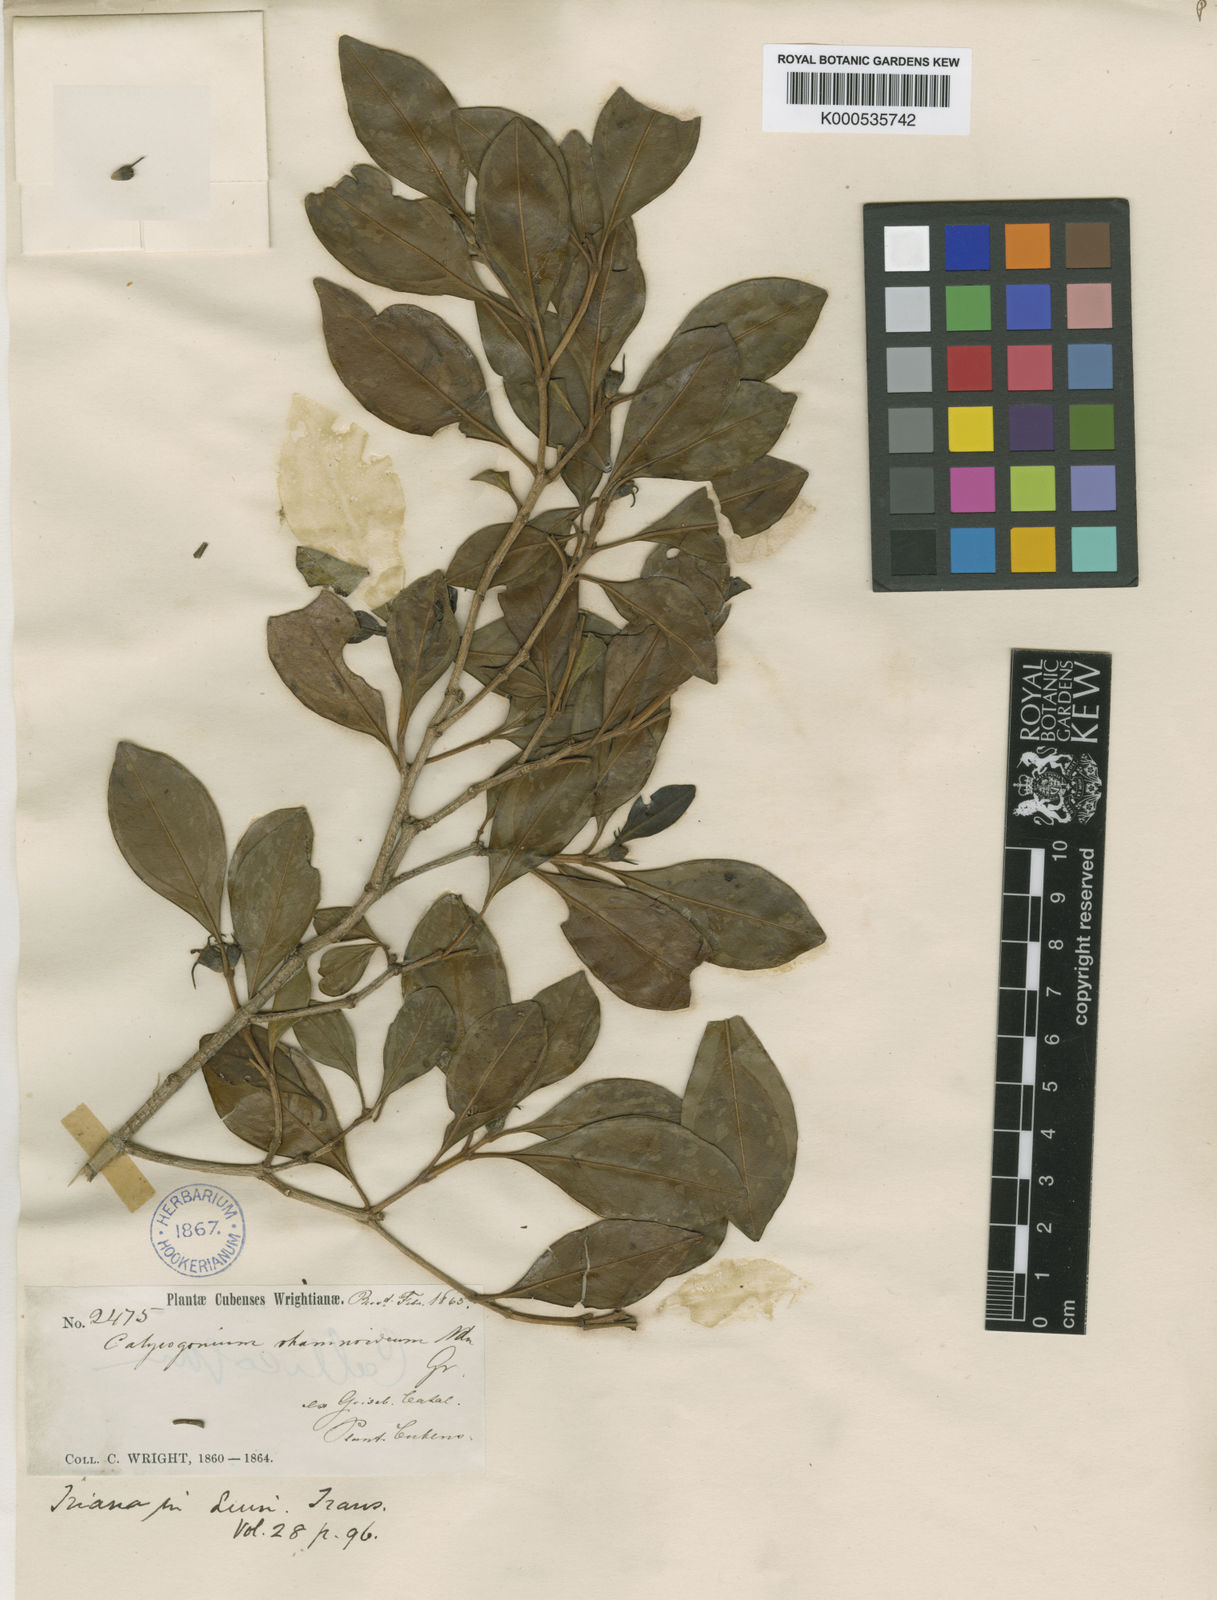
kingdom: Plantae
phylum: Tracheophyta
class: Magnoliopsida
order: Myrtales
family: Melastomataceae
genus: Miconia
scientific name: Miconia vulcanidomatia
